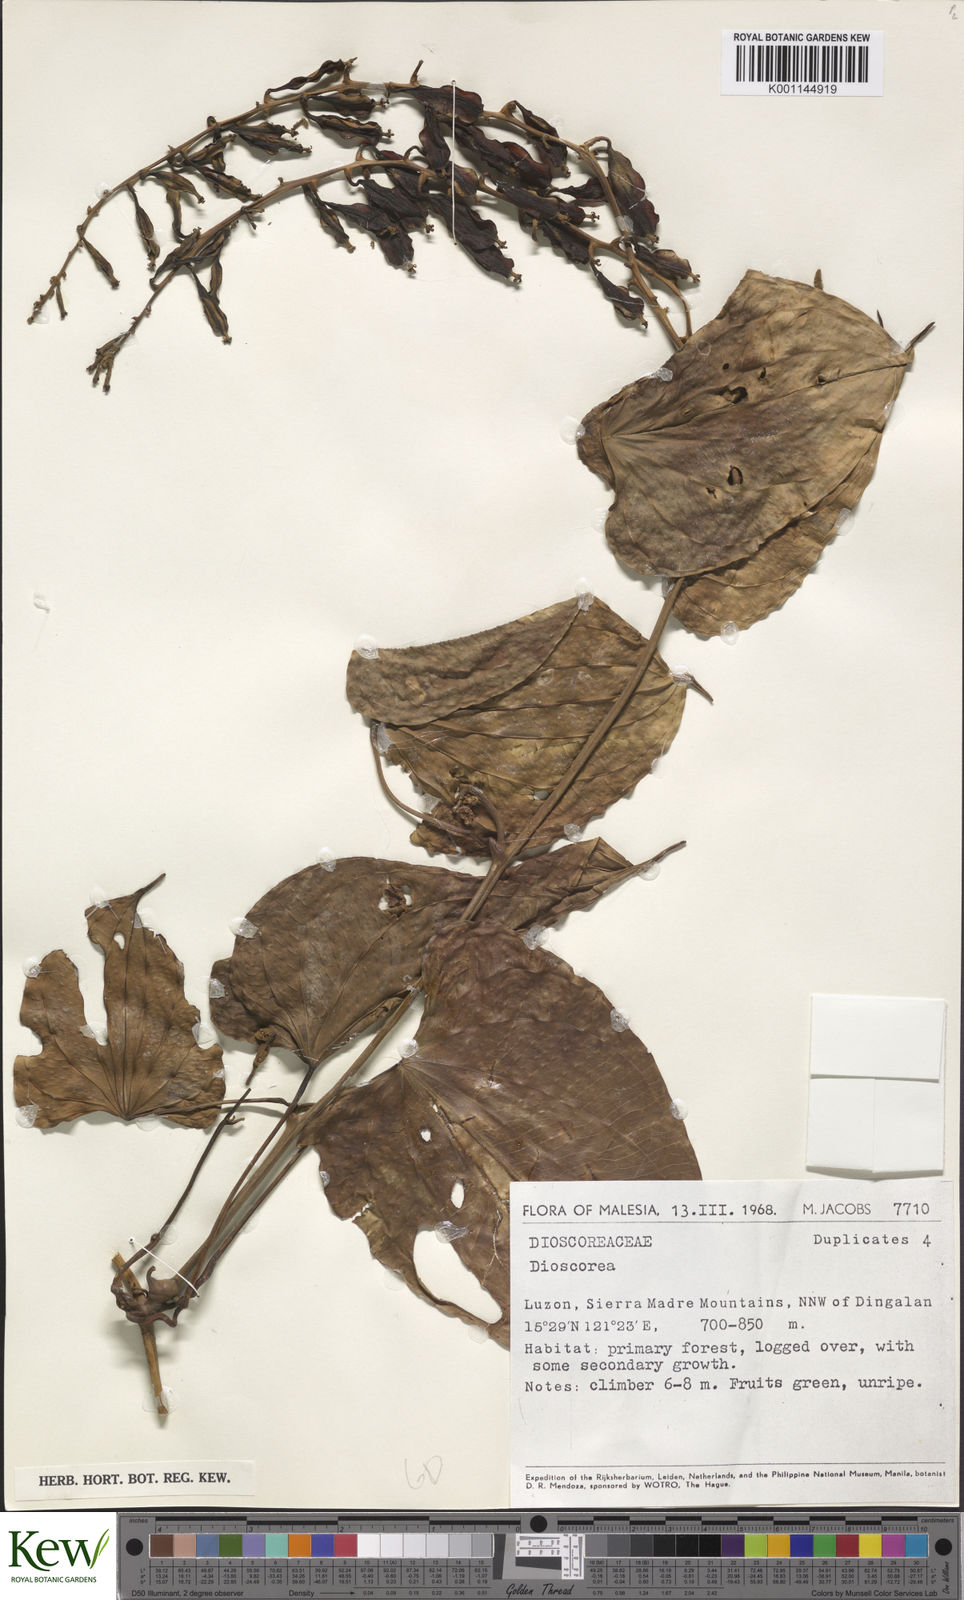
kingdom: Plantae
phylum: Tracheophyta
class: Liliopsida
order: Dioscoreales
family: Dioscoreaceae
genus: Dioscorea
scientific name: Dioscorea
